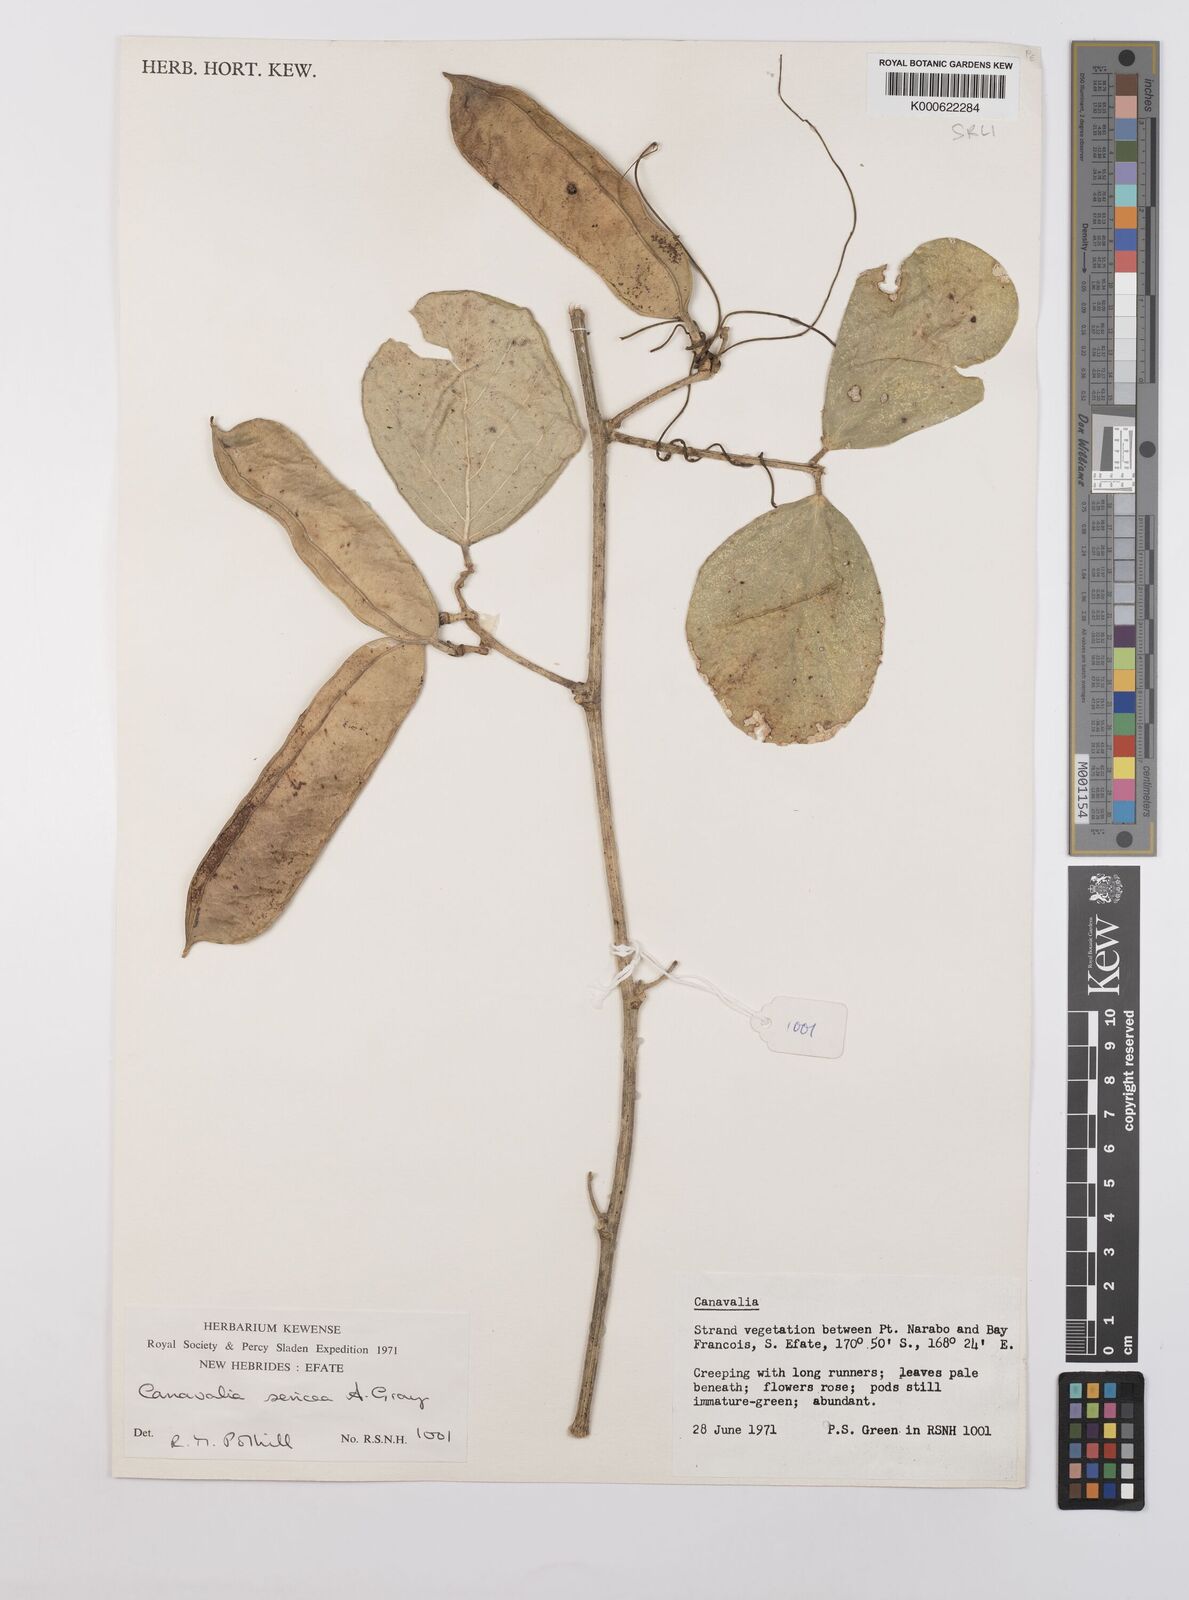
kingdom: Plantae
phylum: Tracheophyta
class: Magnoliopsida
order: Fabales
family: Fabaceae
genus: Canavalia
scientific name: Canavalia sericea
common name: Silky jackbean
